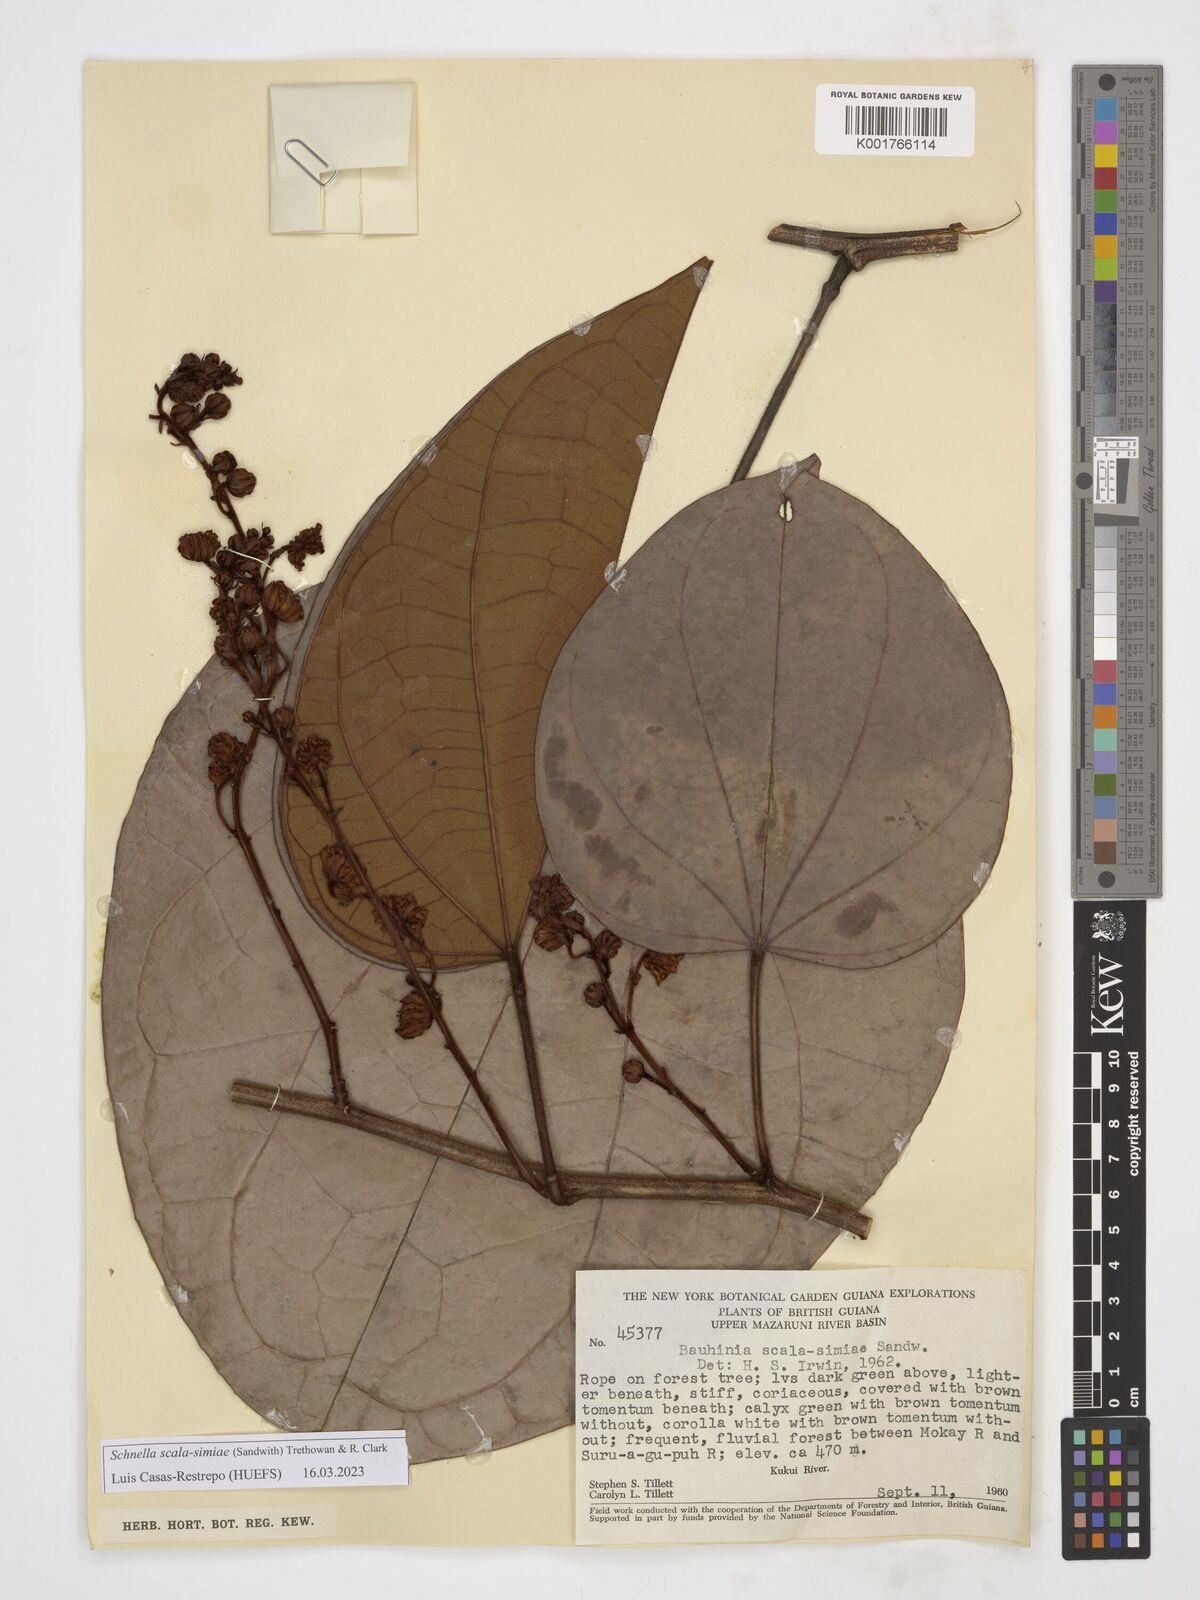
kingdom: Plantae
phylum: Tracheophyta
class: Magnoliopsida
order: Fabales
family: Fabaceae
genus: Schnella
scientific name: Schnella scala-simiae
